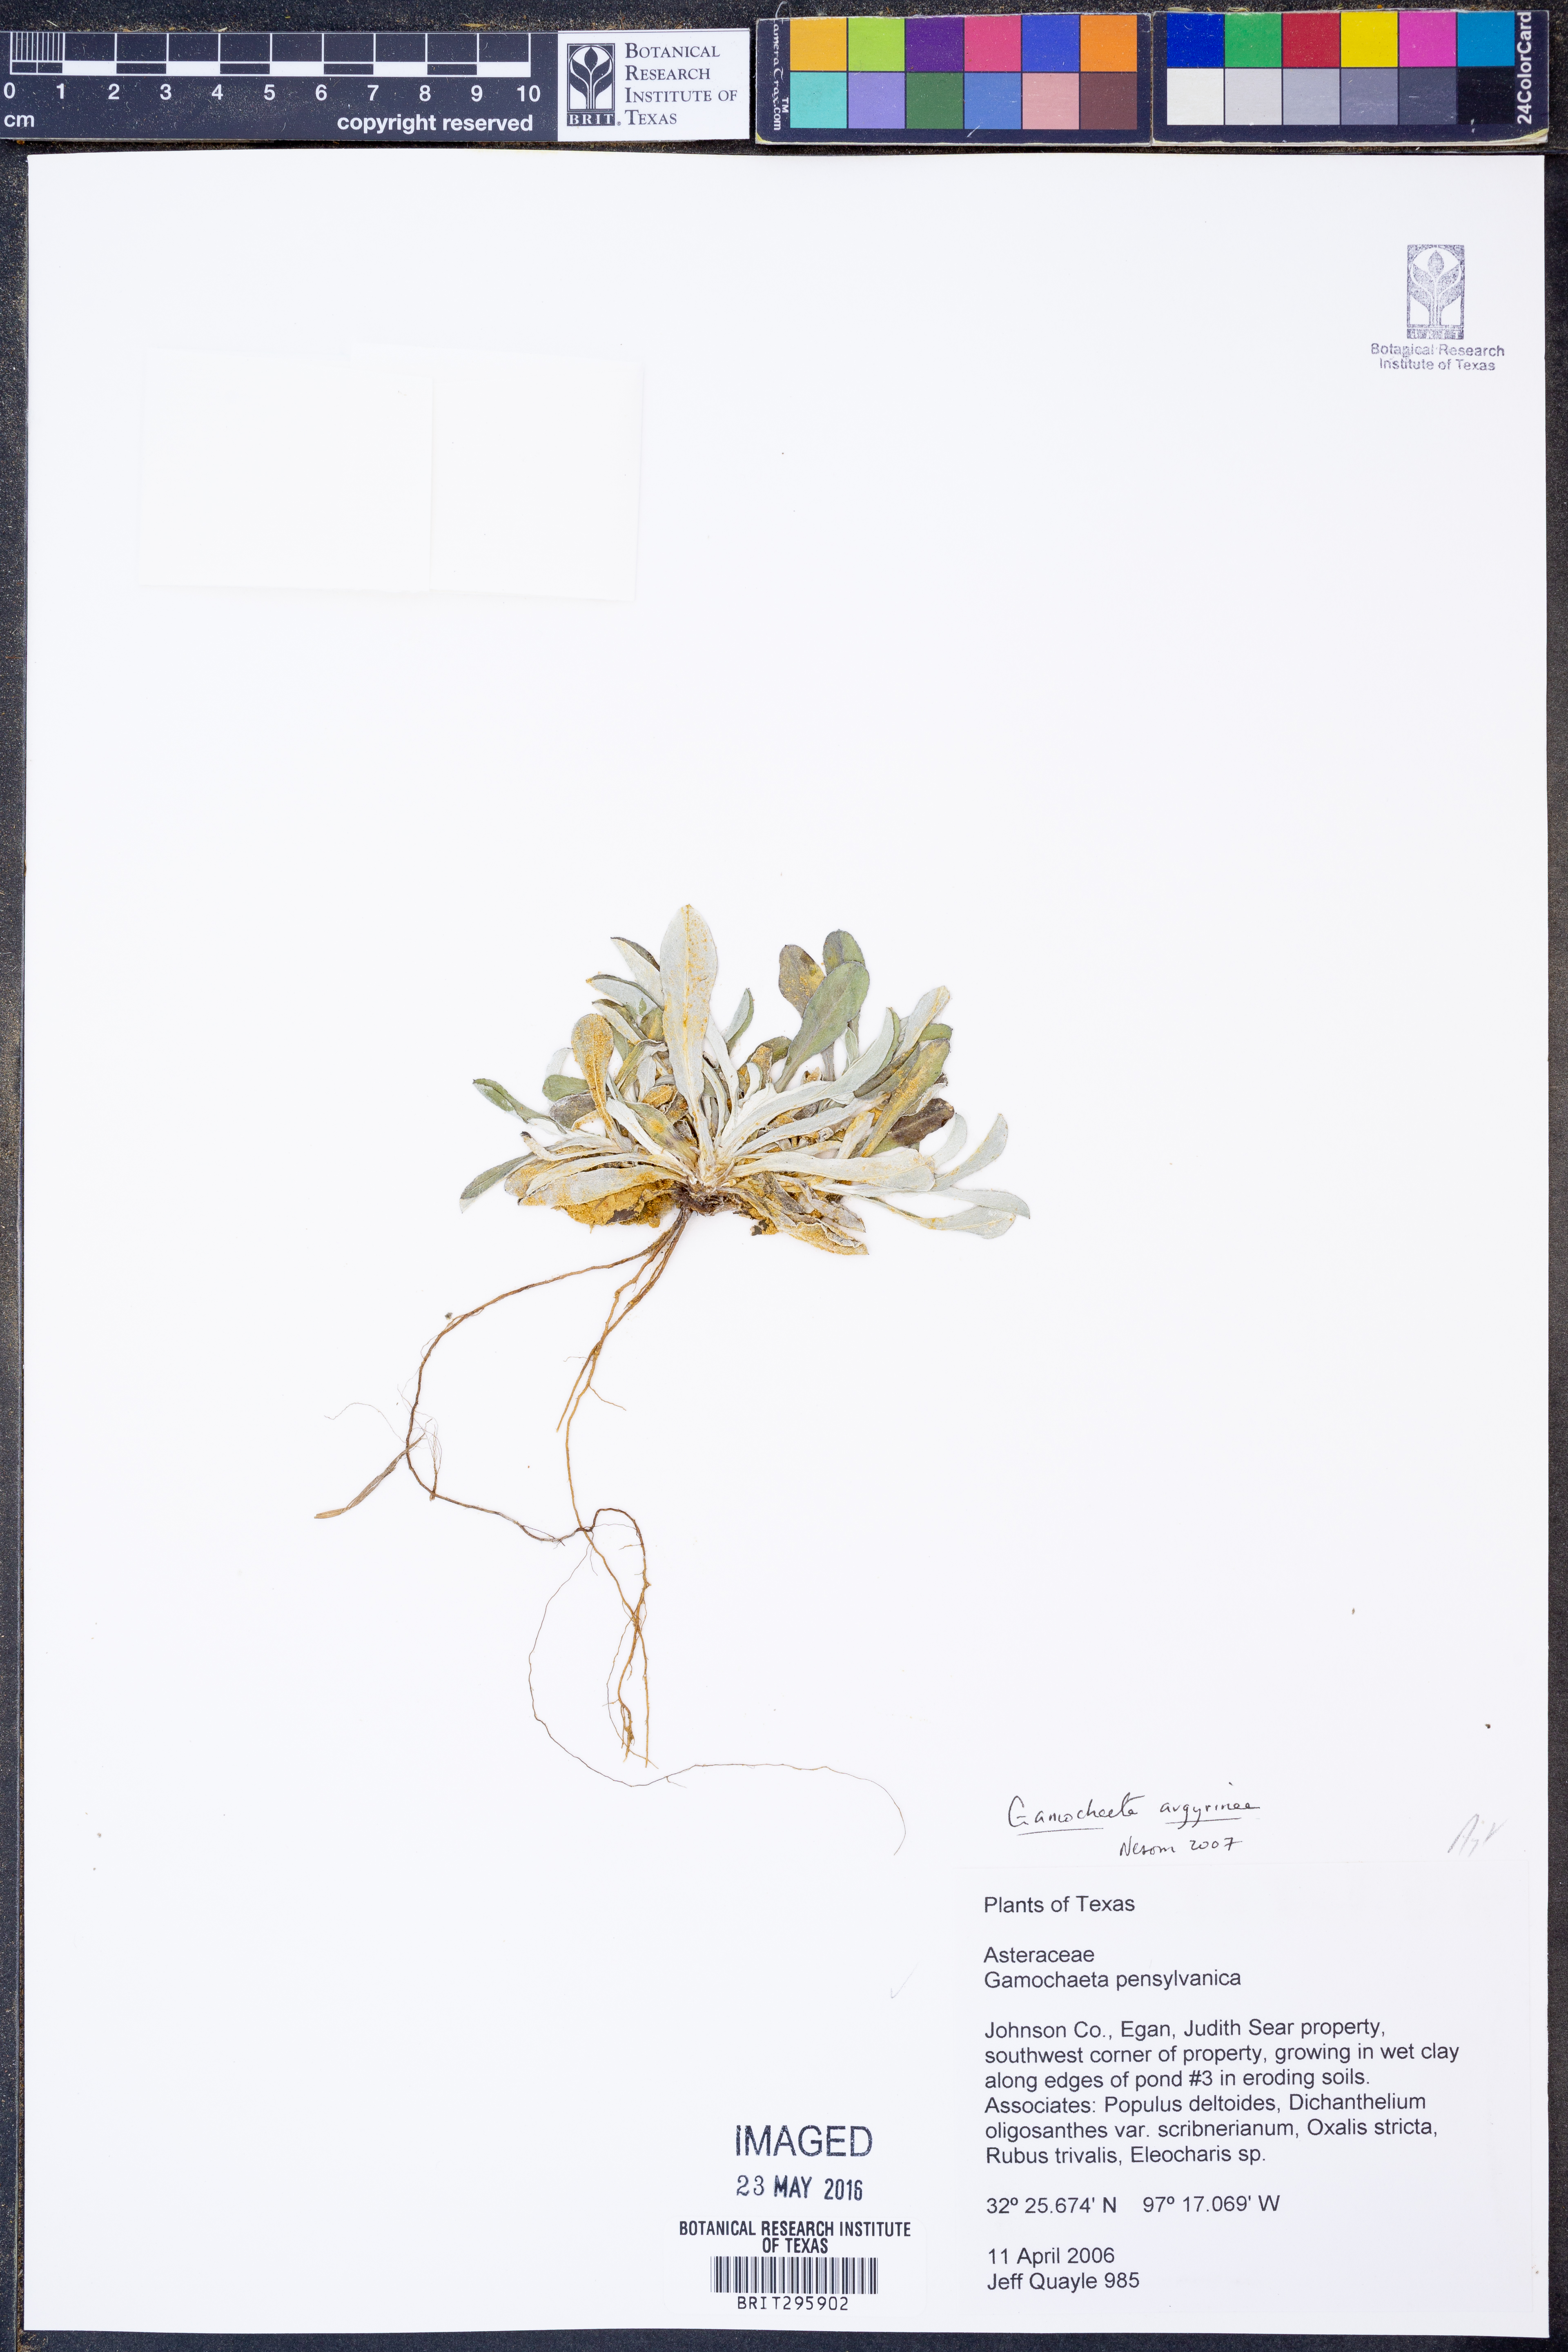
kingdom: Plantae
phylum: Tracheophyta
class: Magnoliopsida
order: Asterales
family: Asteraceae
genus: Gamochaeta
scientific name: Gamochaeta argyrinea
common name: Silvery cudweed
